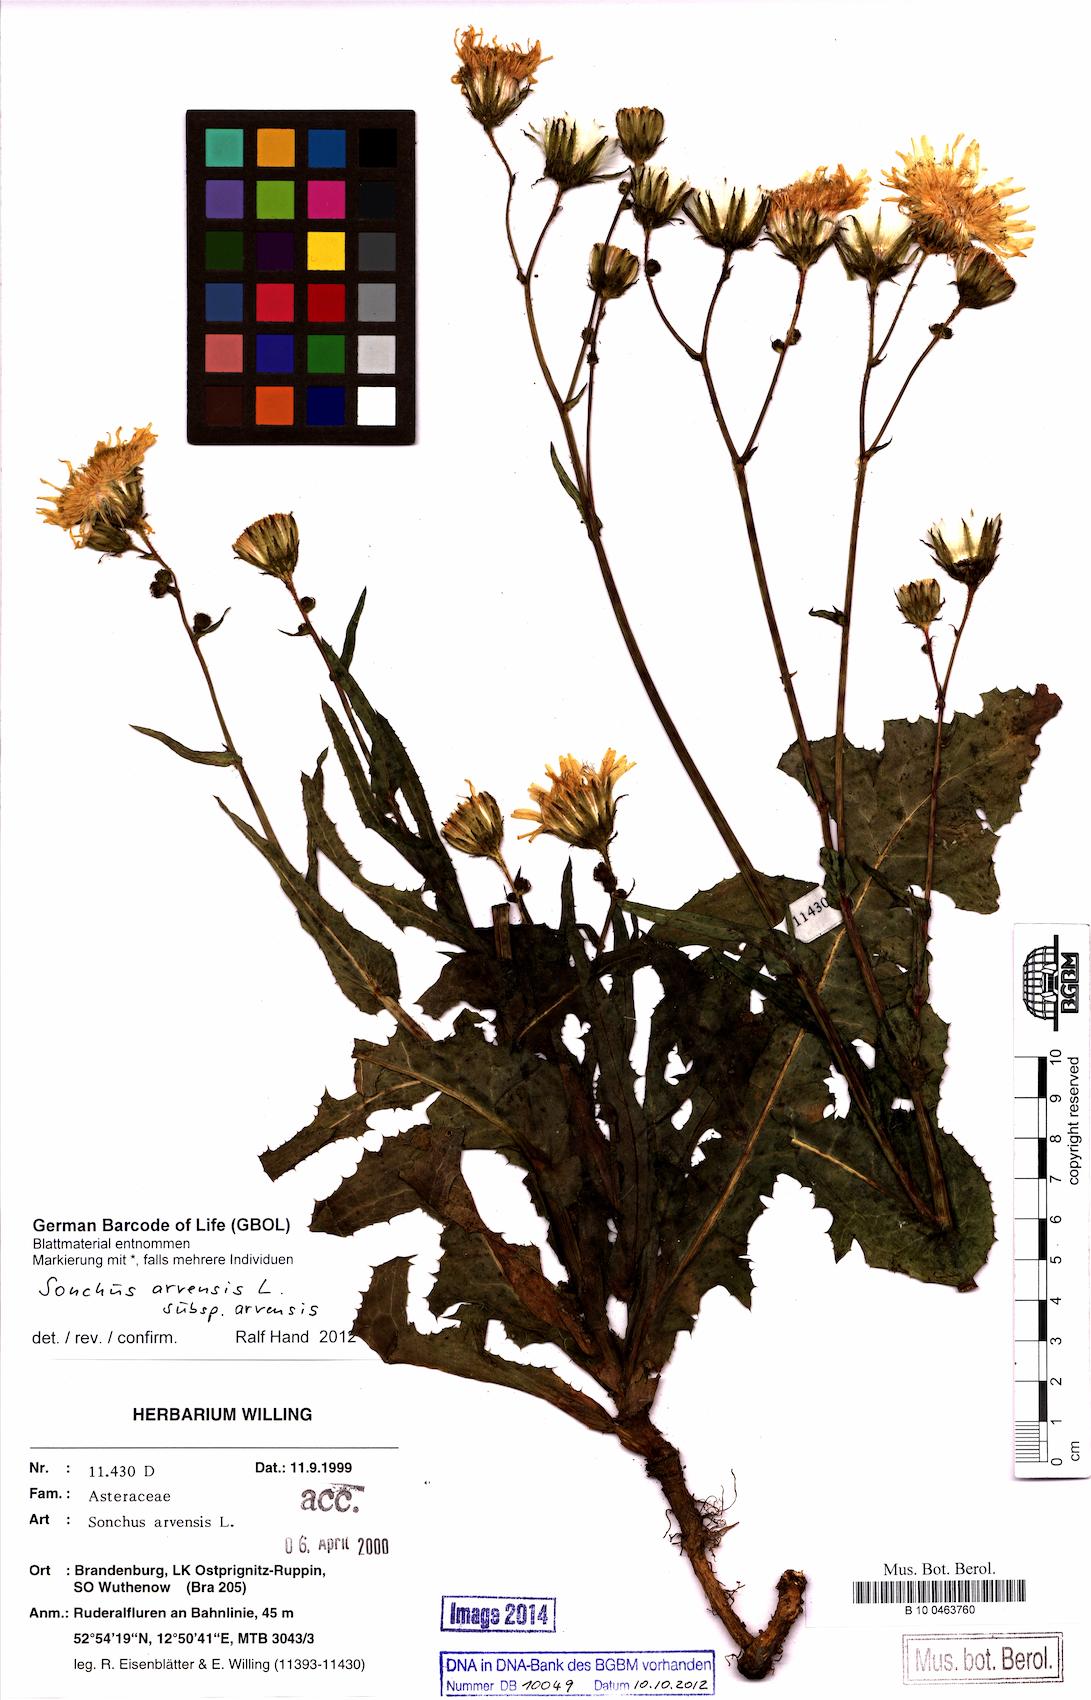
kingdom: Plantae
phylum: Tracheophyta
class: Magnoliopsida
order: Asterales
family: Asteraceae
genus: Sonchus
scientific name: Sonchus arvensis
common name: Perennial sow-thistle
